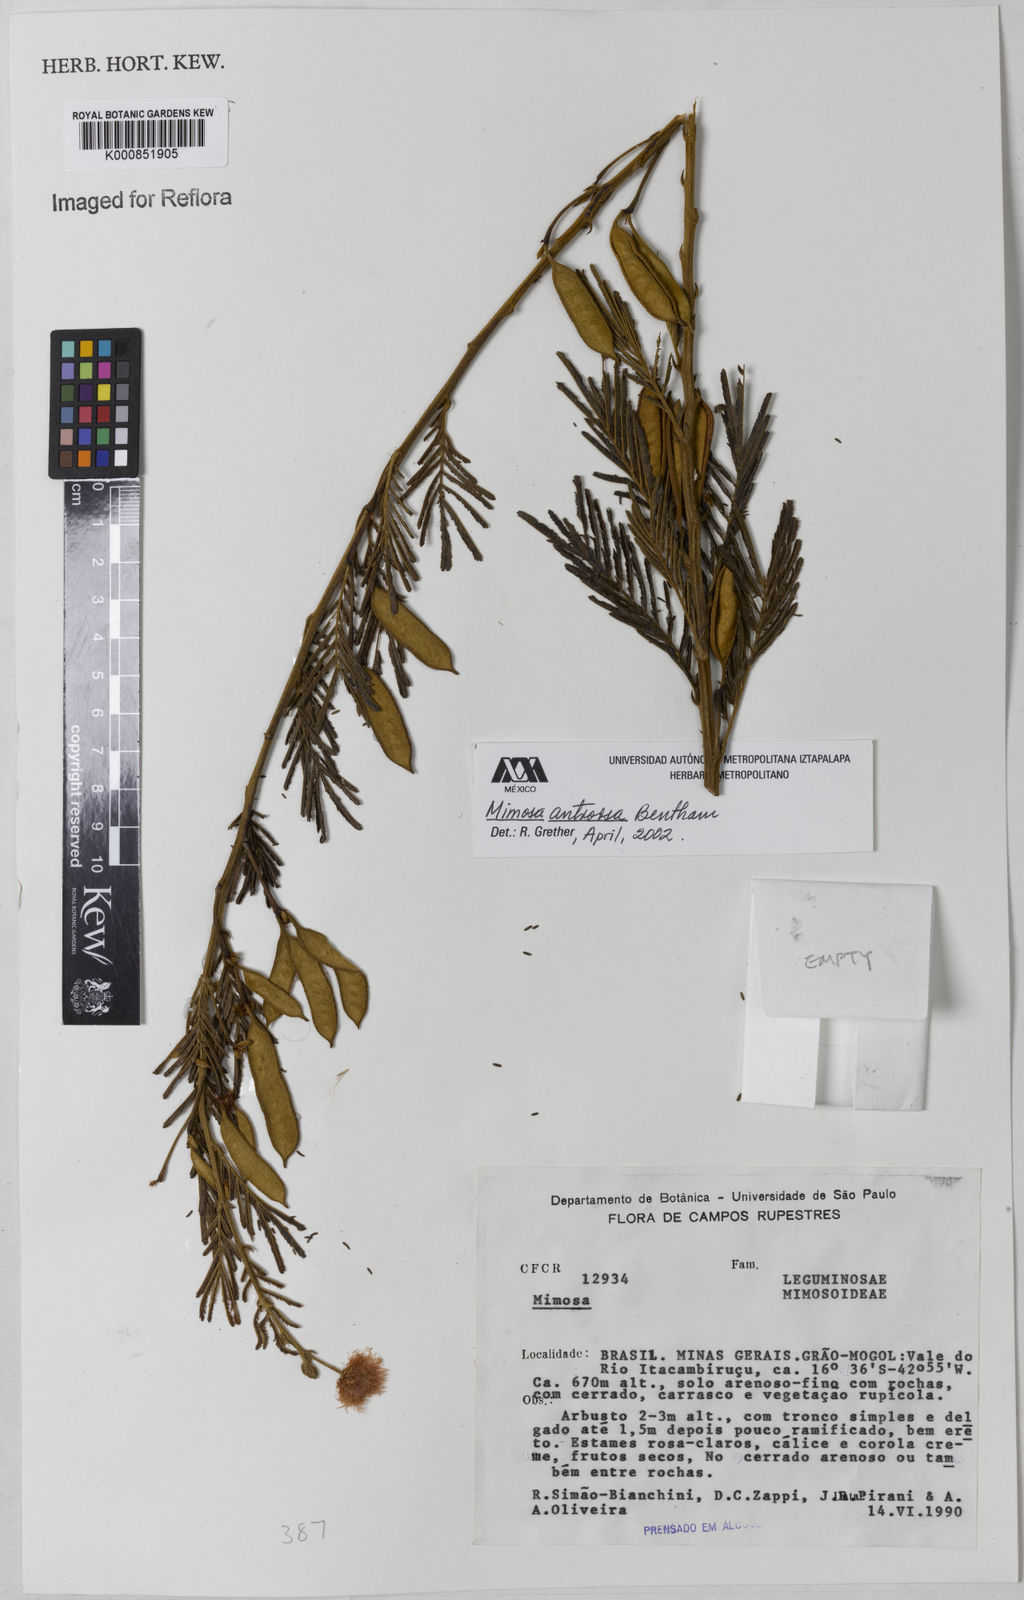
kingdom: Plantae
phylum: Tracheophyta
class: Magnoliopsida
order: Fabales
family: Fabaceae
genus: Mimosa
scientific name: Mimosa antrorsa
